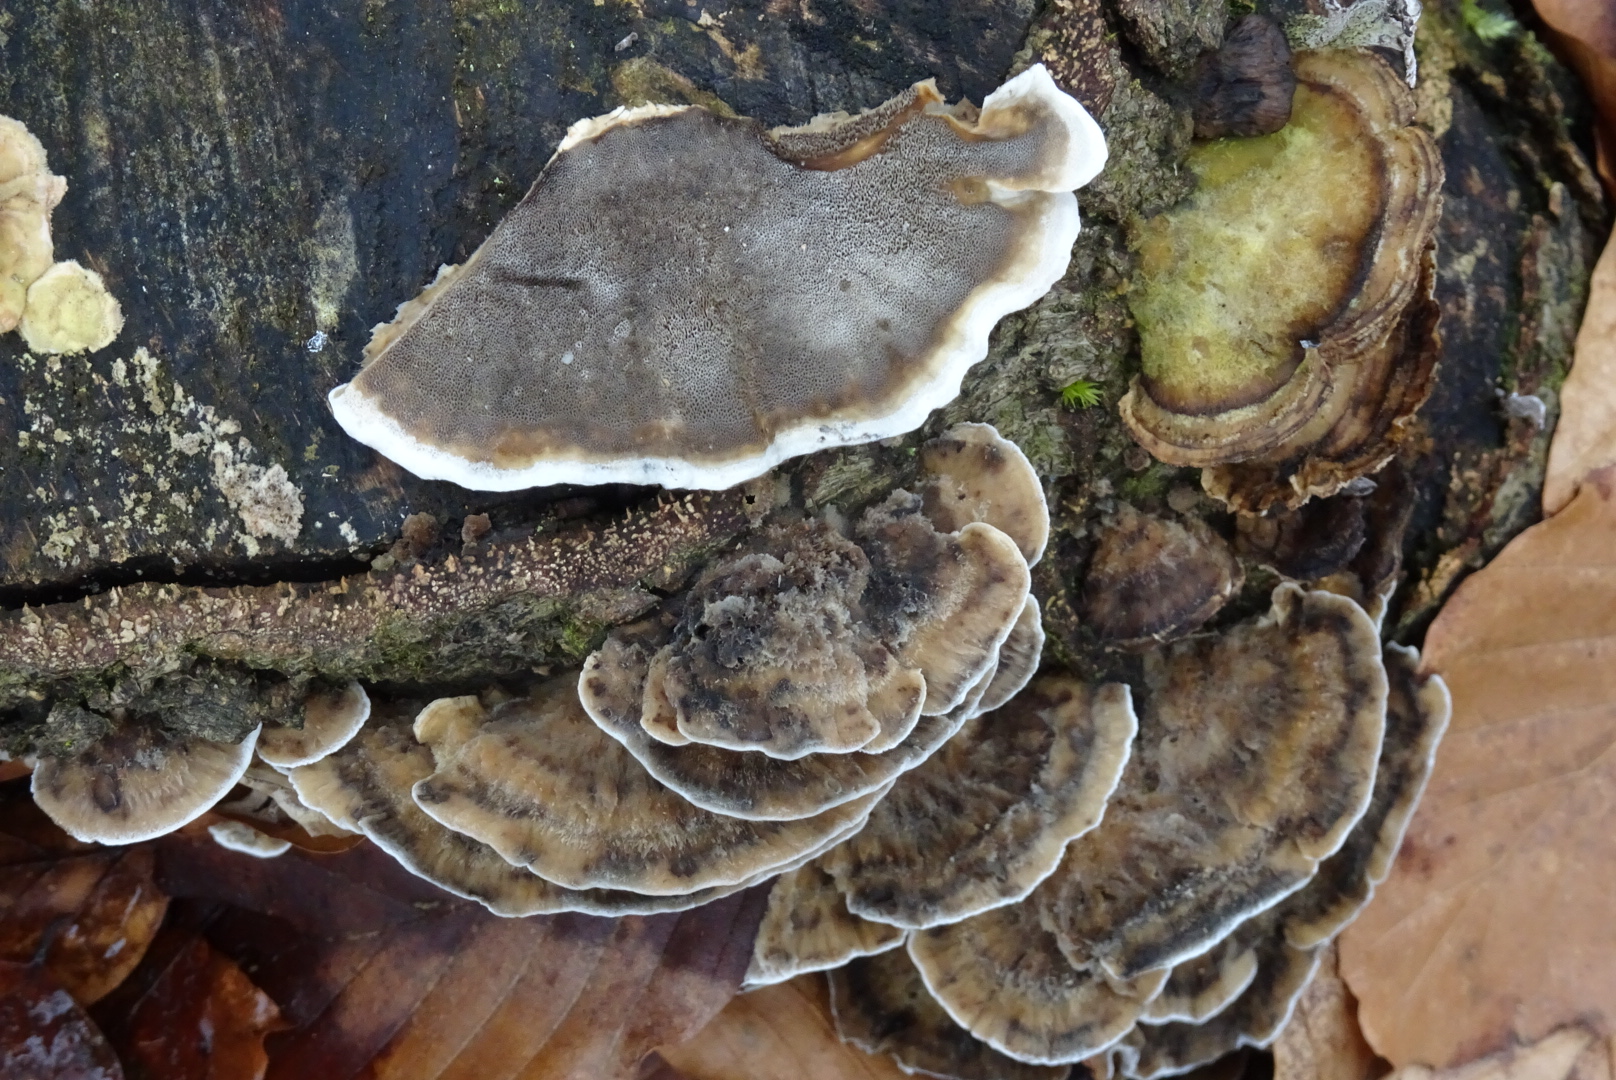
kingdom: Fungi
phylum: Basidiomycota
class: Agaricomycetes
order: Polyporales
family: Phanerochaetaceae
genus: Bjerkandera
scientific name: Bjerkandera adusta
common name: sveden sodporesvamp
